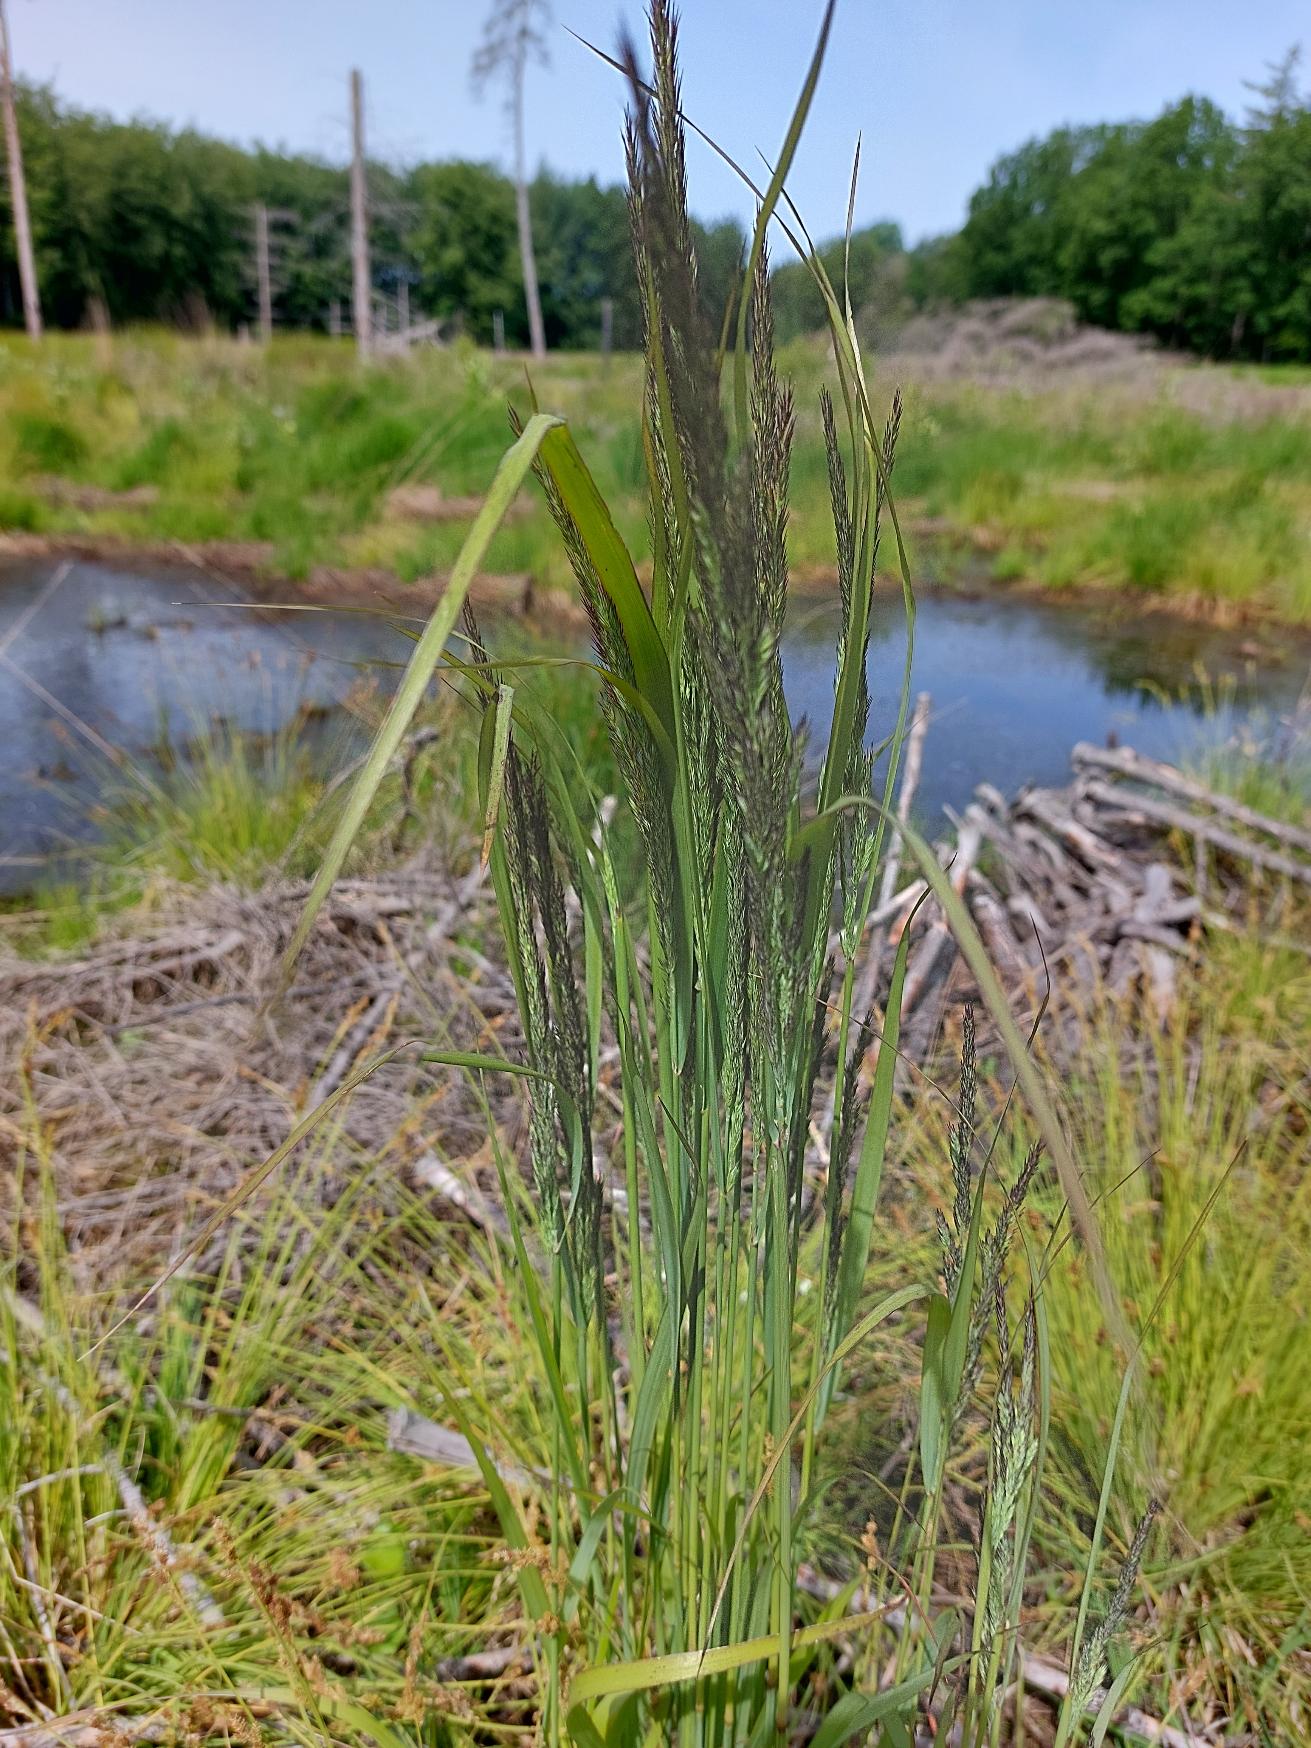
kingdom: Plantae
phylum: Tracheophyta
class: Liliopsida
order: Poales
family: Poaceae
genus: Calamagrostis
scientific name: Calamagrostis epigejos
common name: Bjerg-rørhvene
